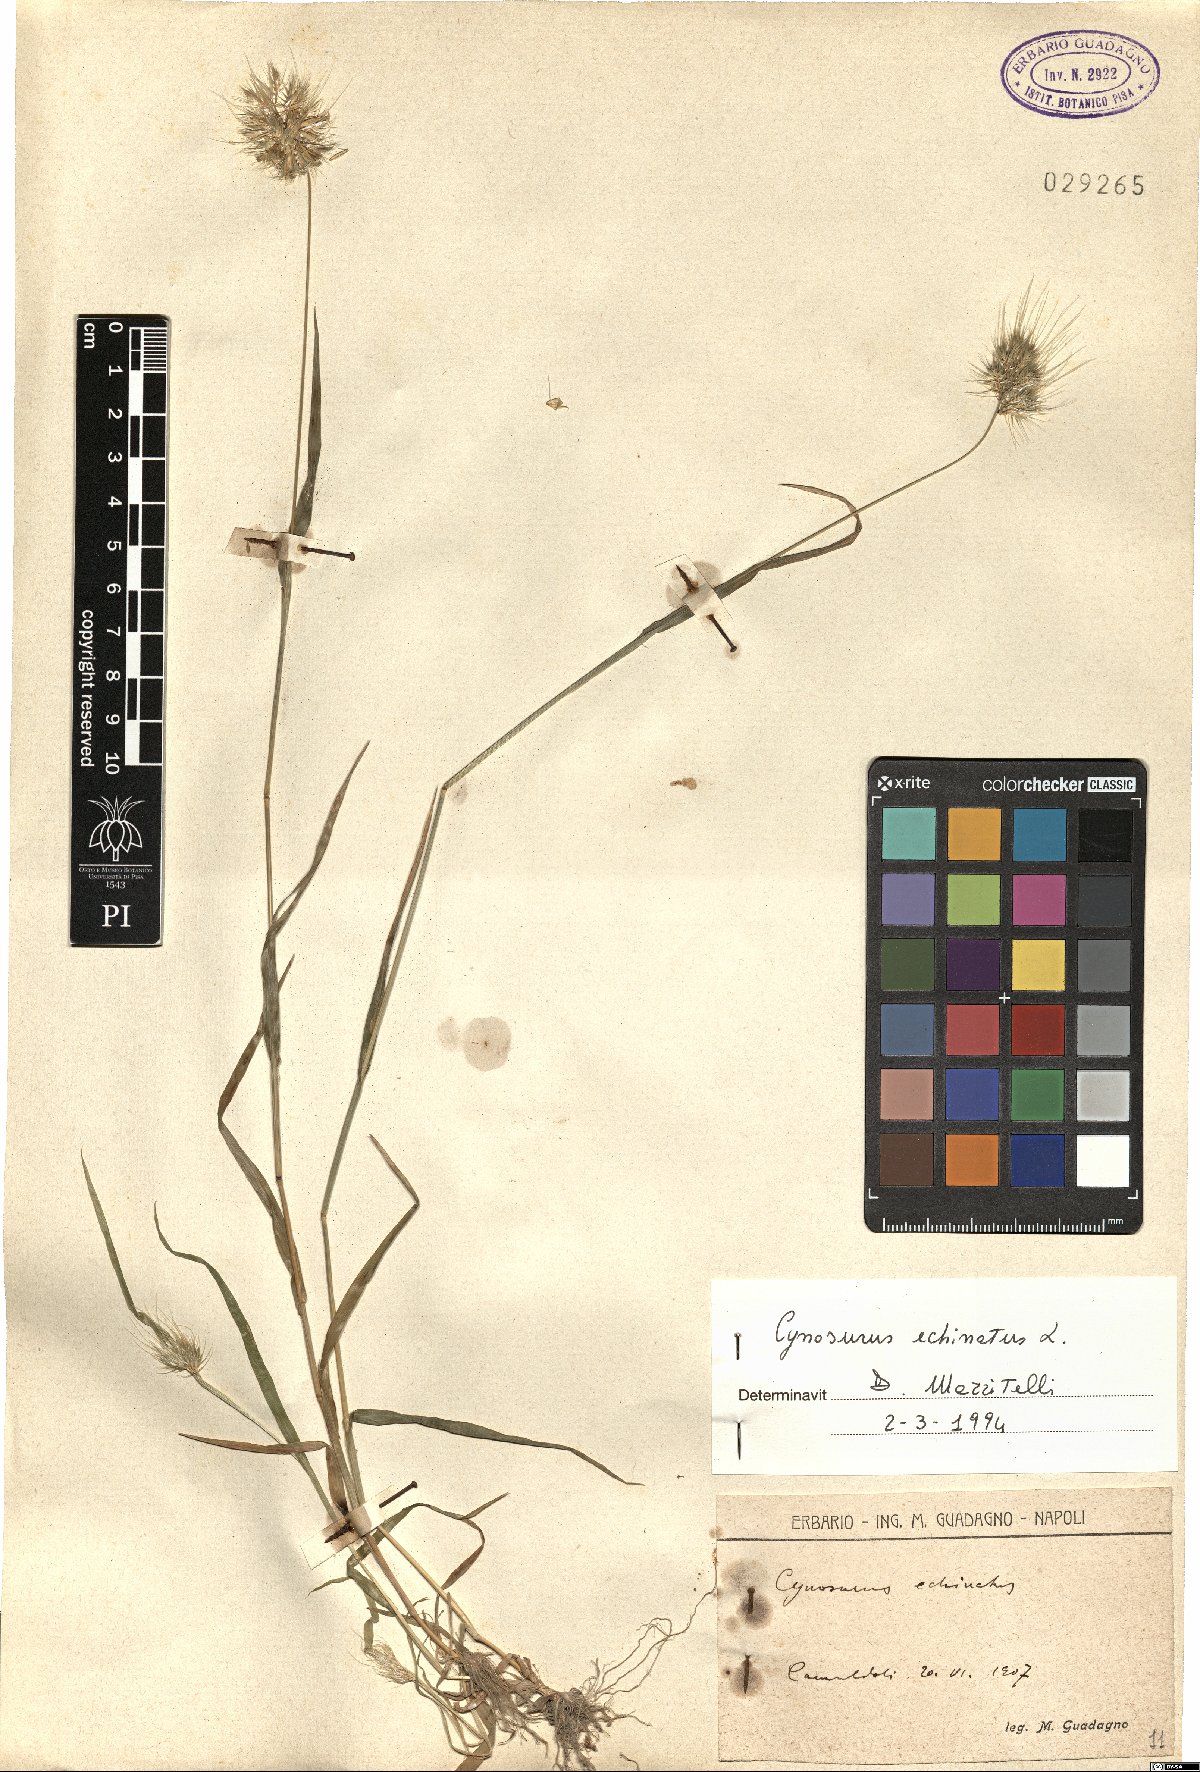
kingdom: Plantae
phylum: Tracheophyta
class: Liliopsida
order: Poales
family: Poaceae
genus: Cynosurus
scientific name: Cynosurus echinatus
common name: Rough dog's-tail
